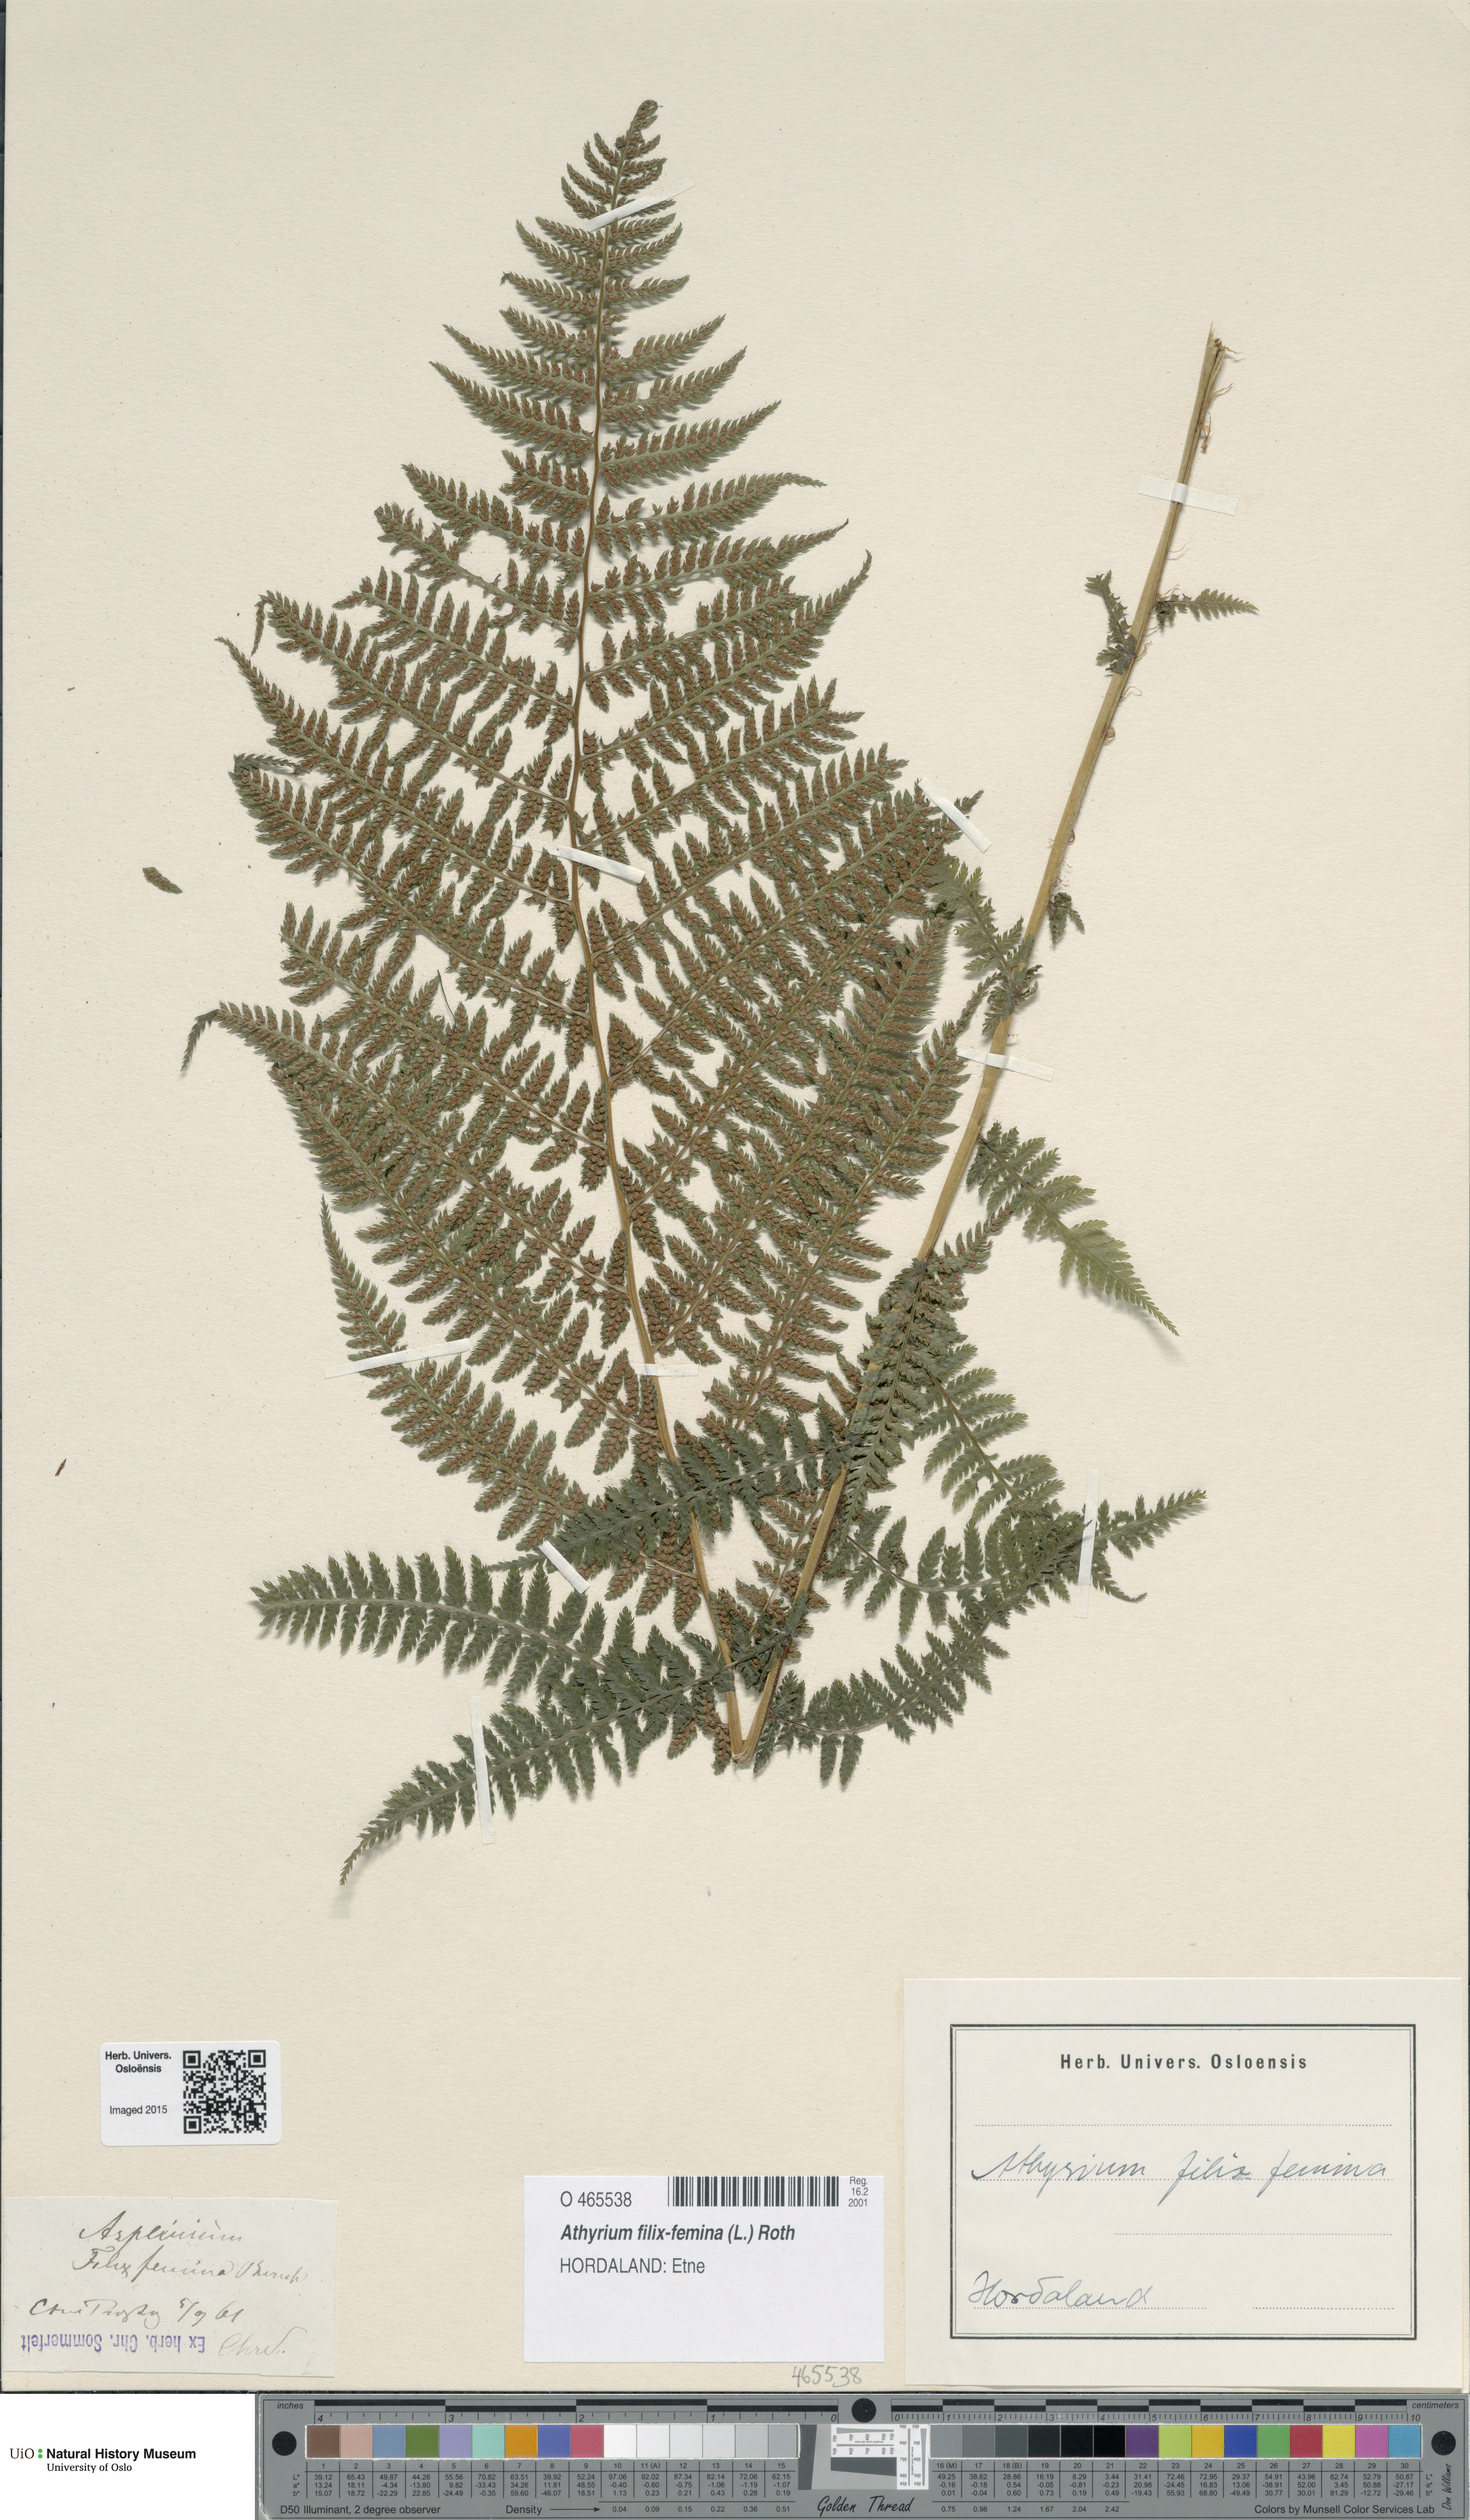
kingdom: Plantae
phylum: Tracheophyta
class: Polypodiopsida
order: Polypodiales
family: Athyriaceae
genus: Athyrium
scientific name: Athyrium filix-femina
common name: Lady fern
